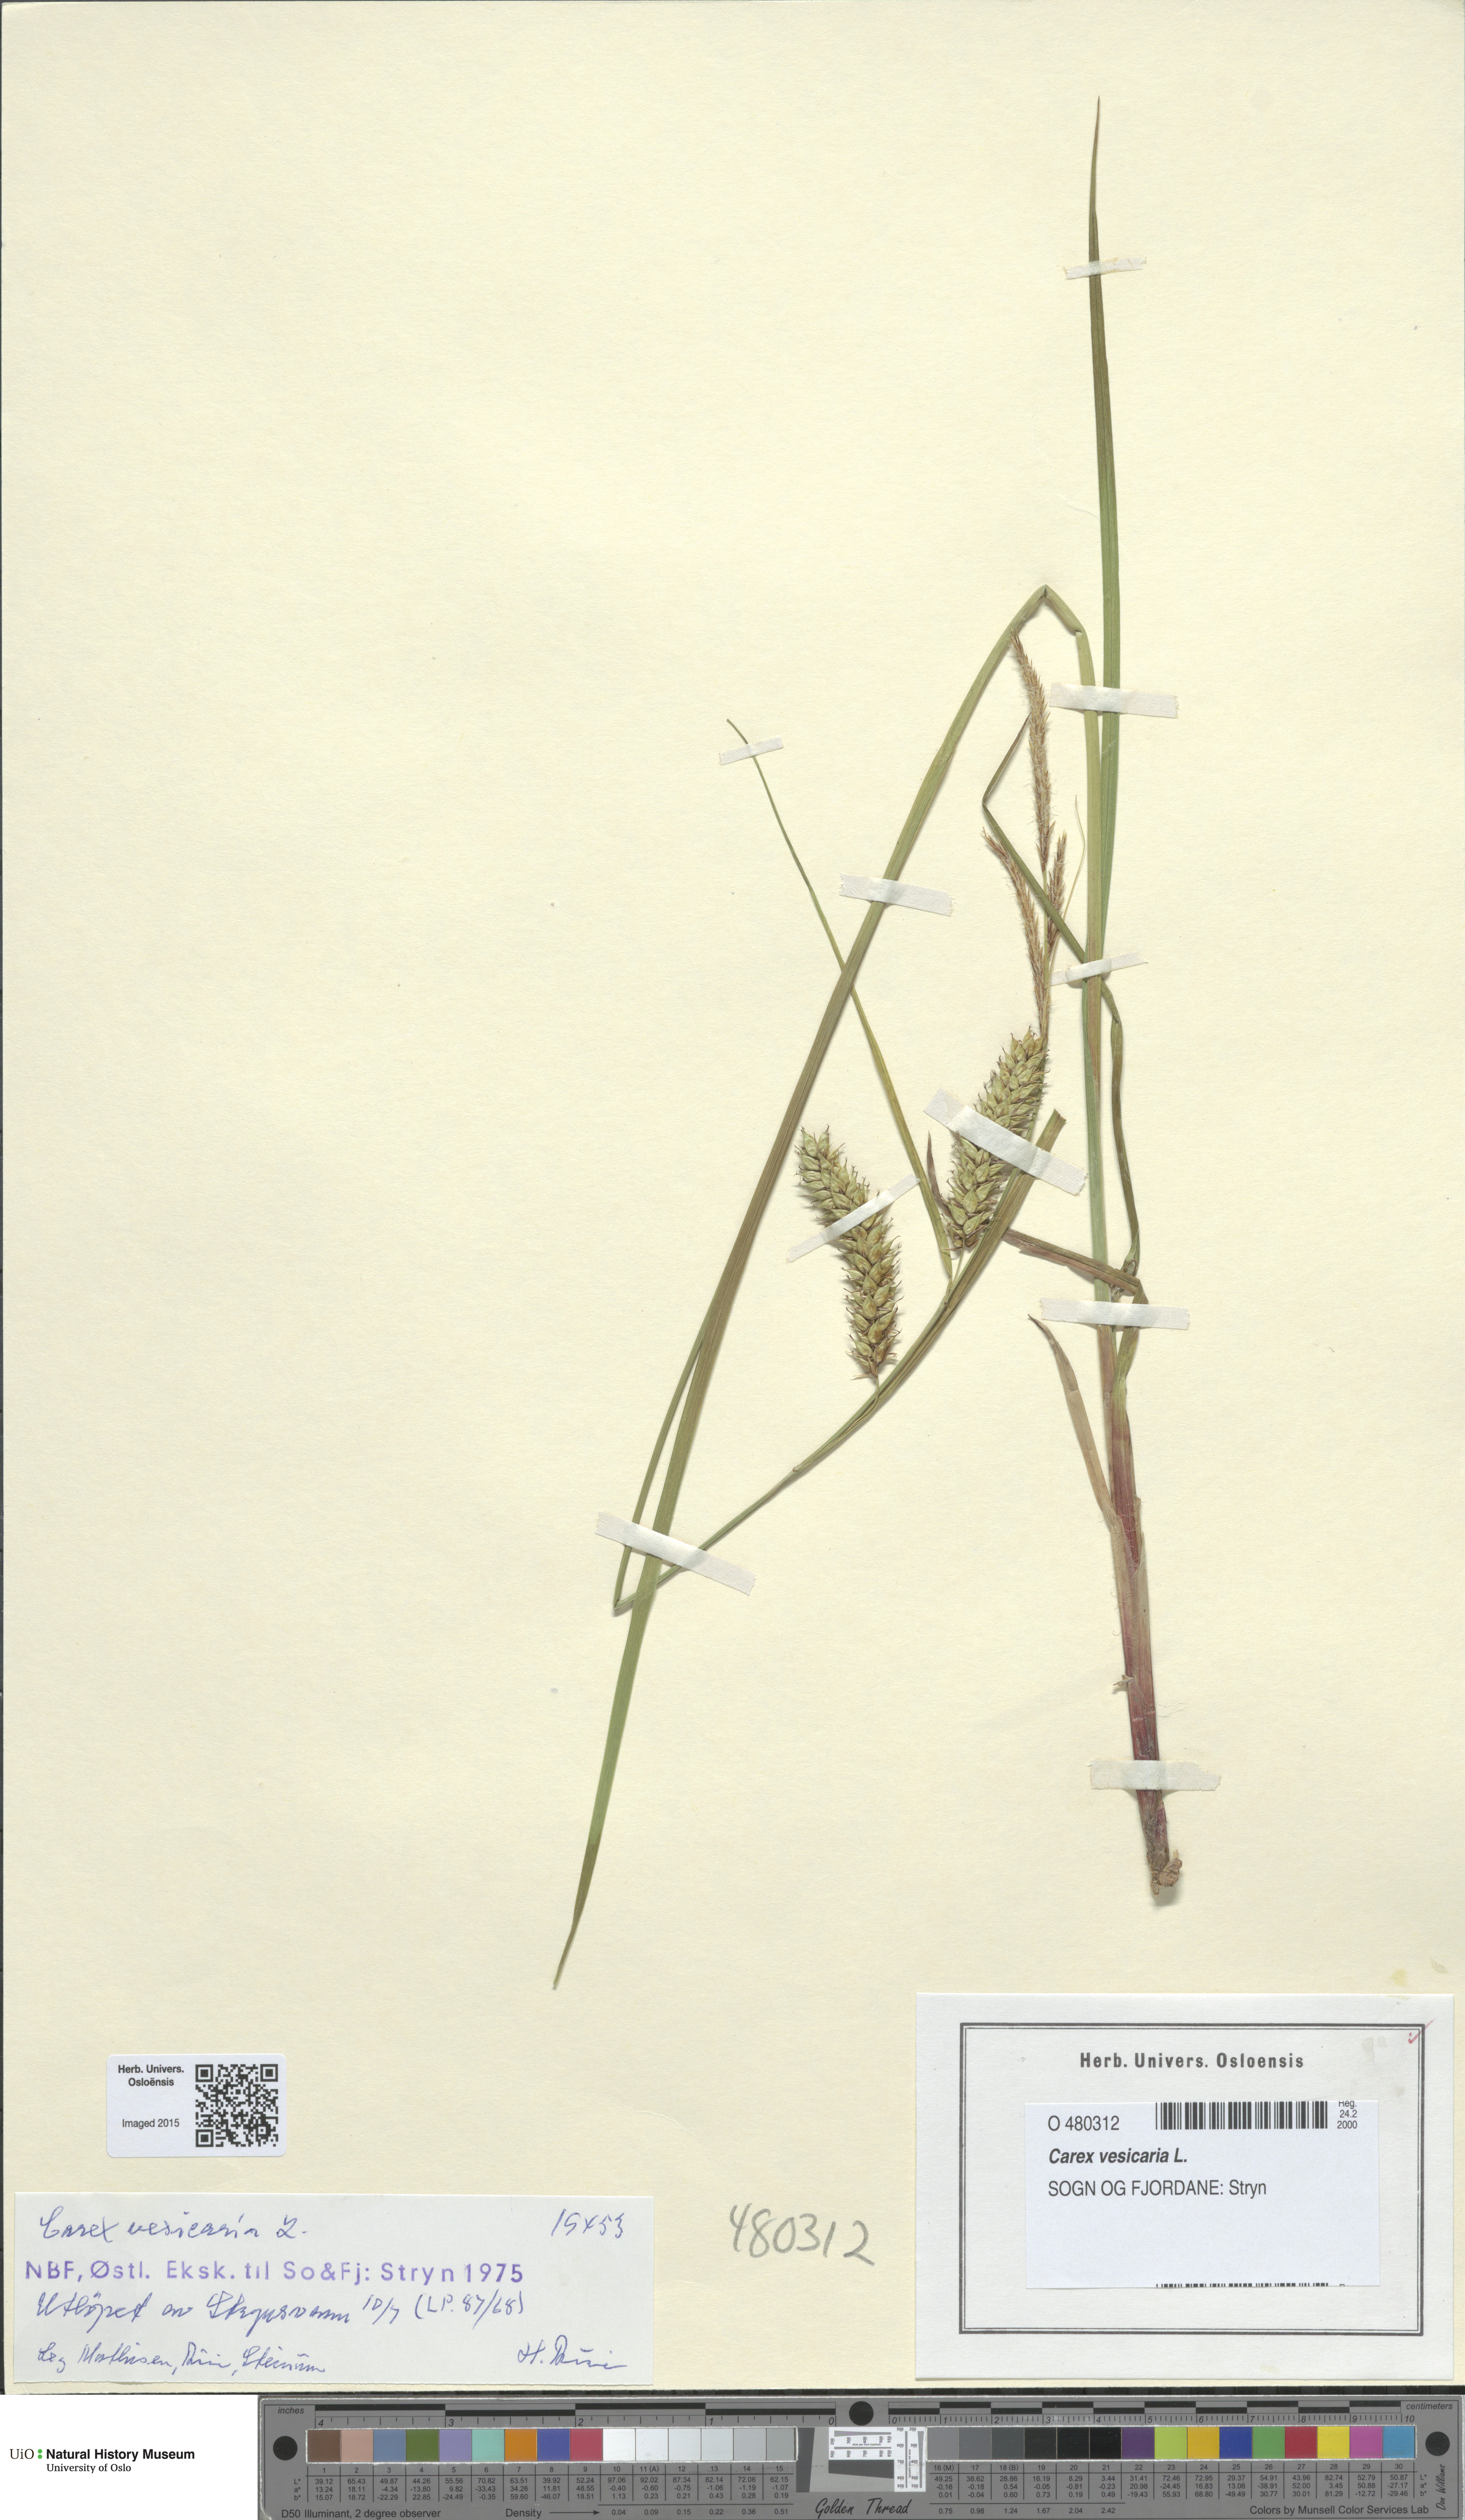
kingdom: Plantae
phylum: Tracheophyta
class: Liliopsida
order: Poales
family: Cyperaceae
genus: Carex
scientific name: Carex vesicaria
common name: Bladder-sedge
